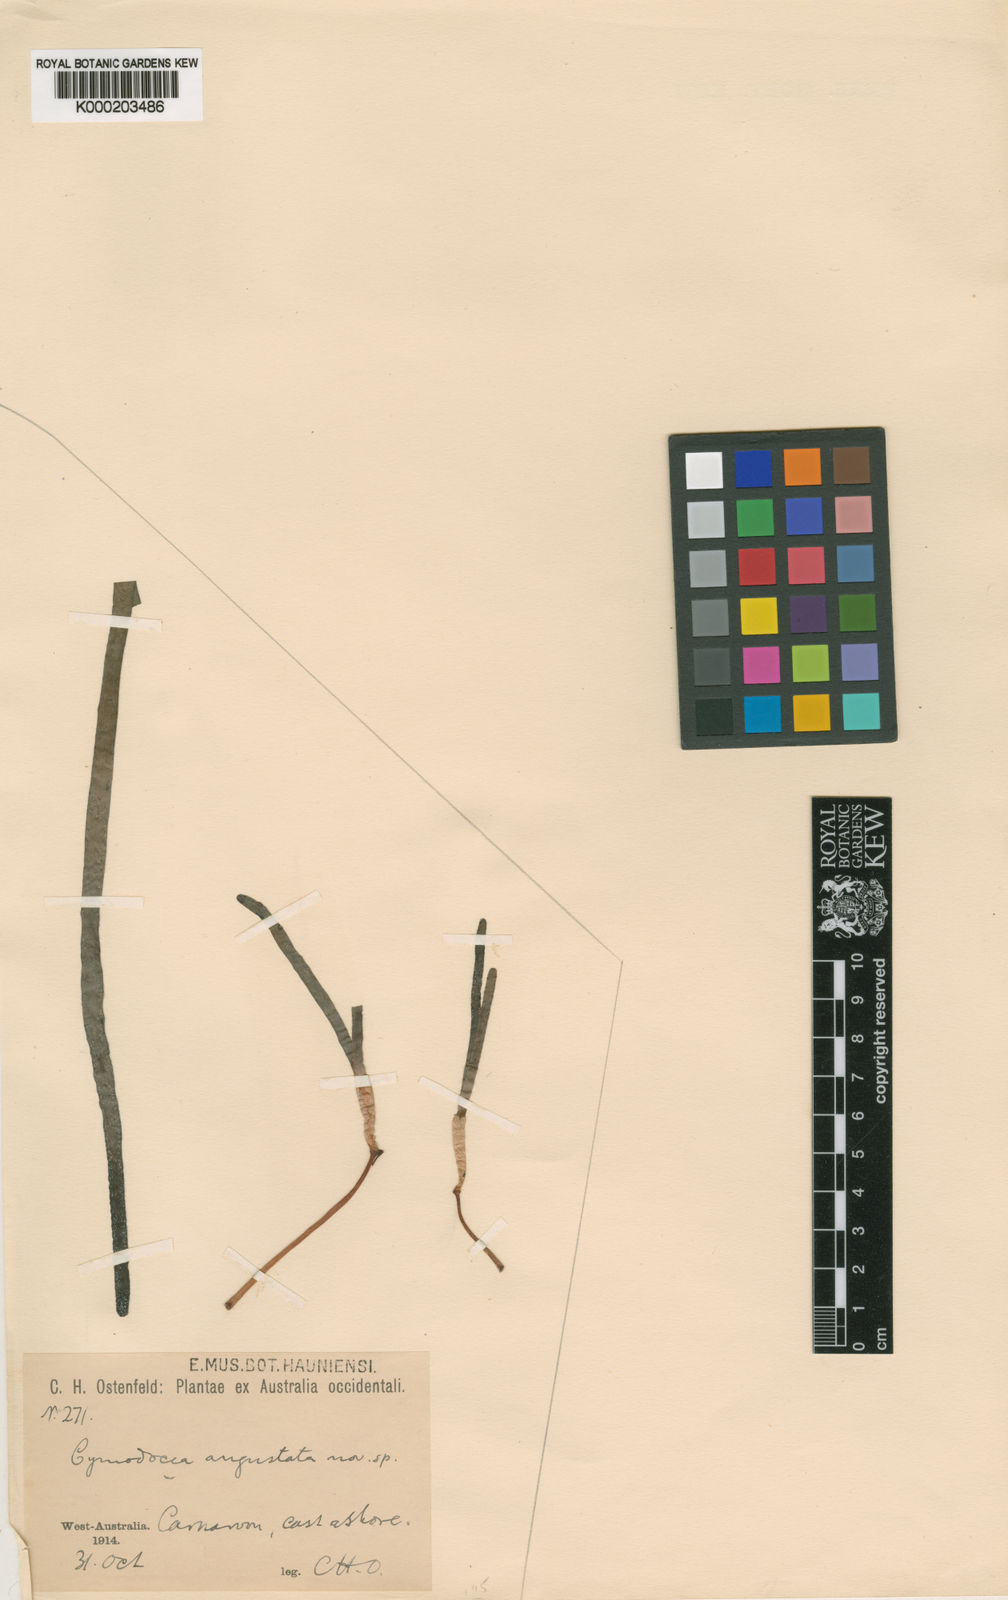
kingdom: Plantae
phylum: Tracheophyta
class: Liliopsida
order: Alismatales
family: Cymodoceaceae
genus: Cymodocea
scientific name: Cymodocea angustata
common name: Species code: ca
